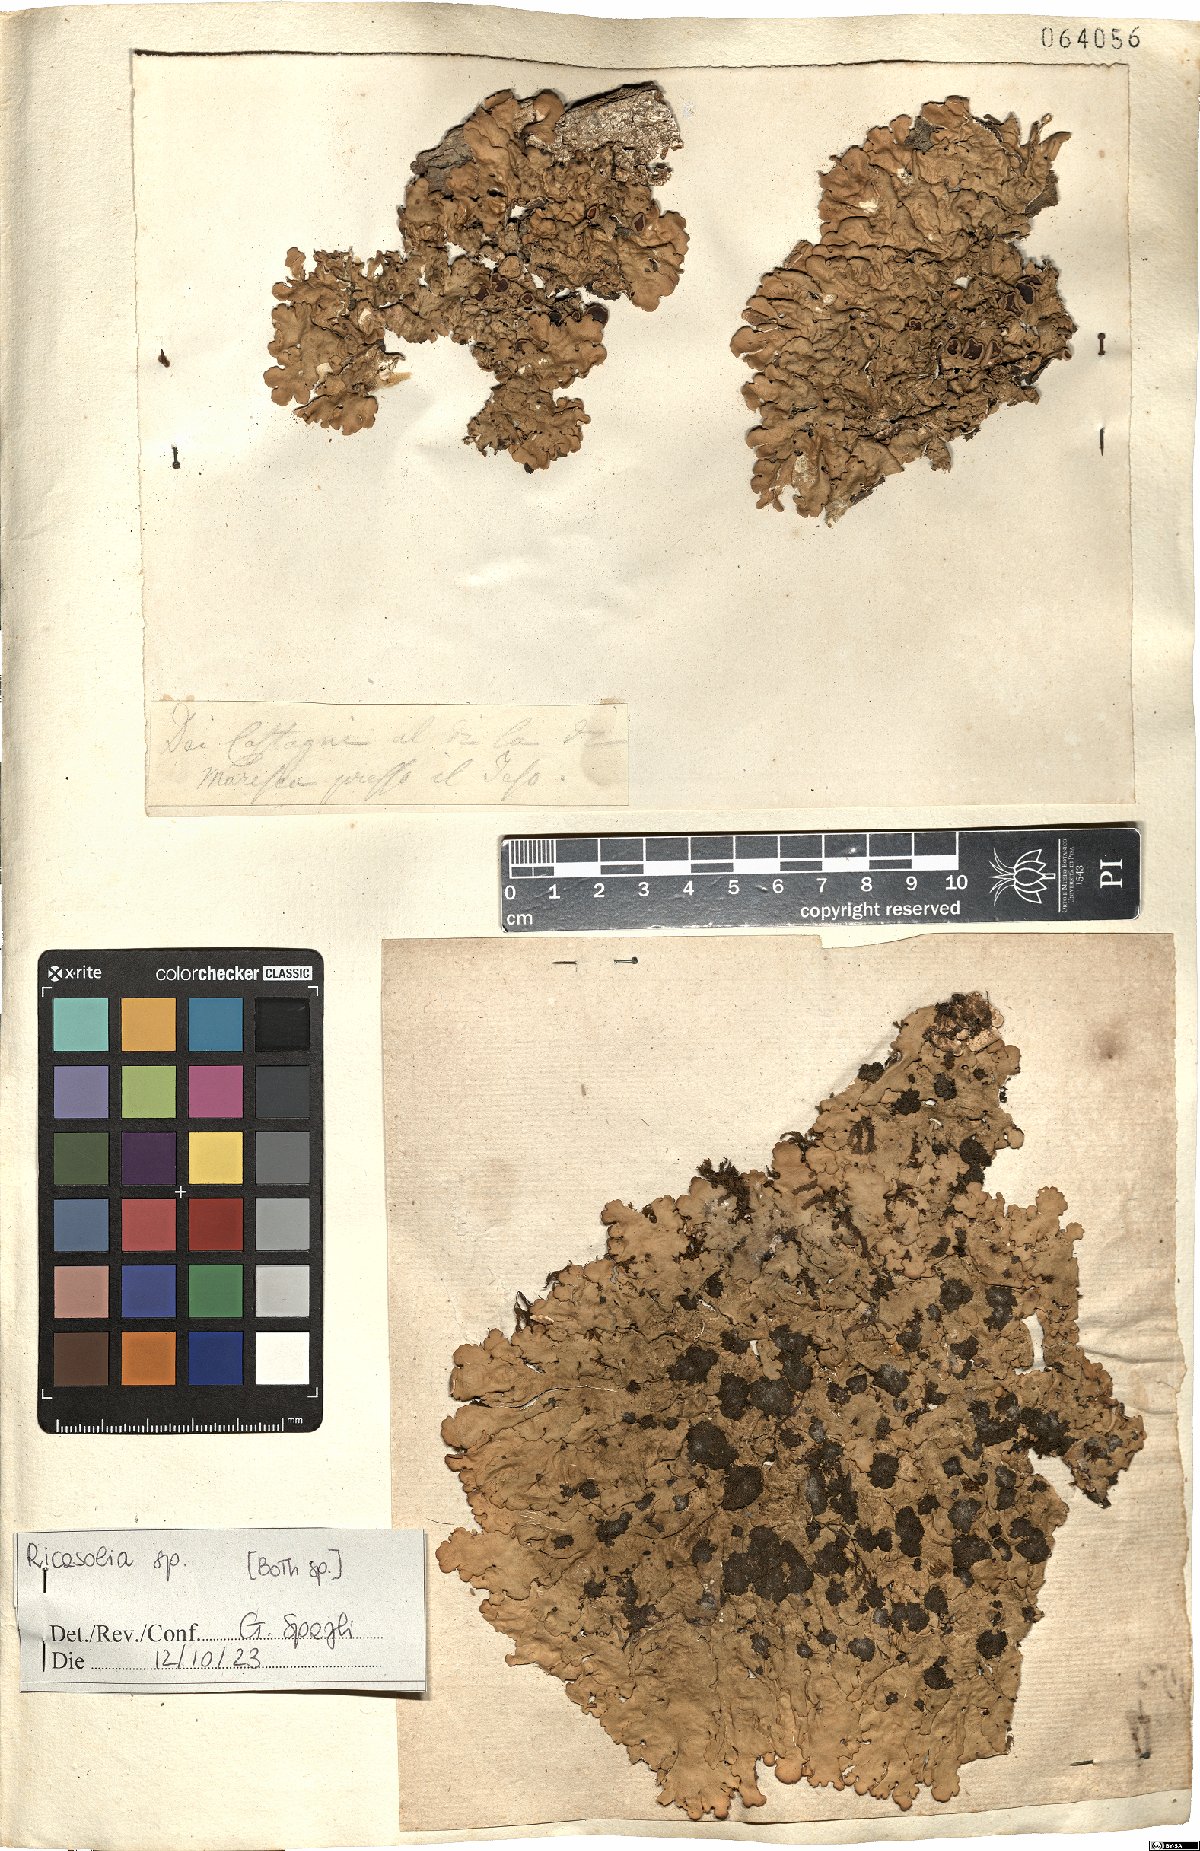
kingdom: Fungi
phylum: Ascomycota
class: Lecanoromycetes
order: Peltigerales
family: Lobariaceae
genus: Ricasolia
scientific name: Ricasolia
